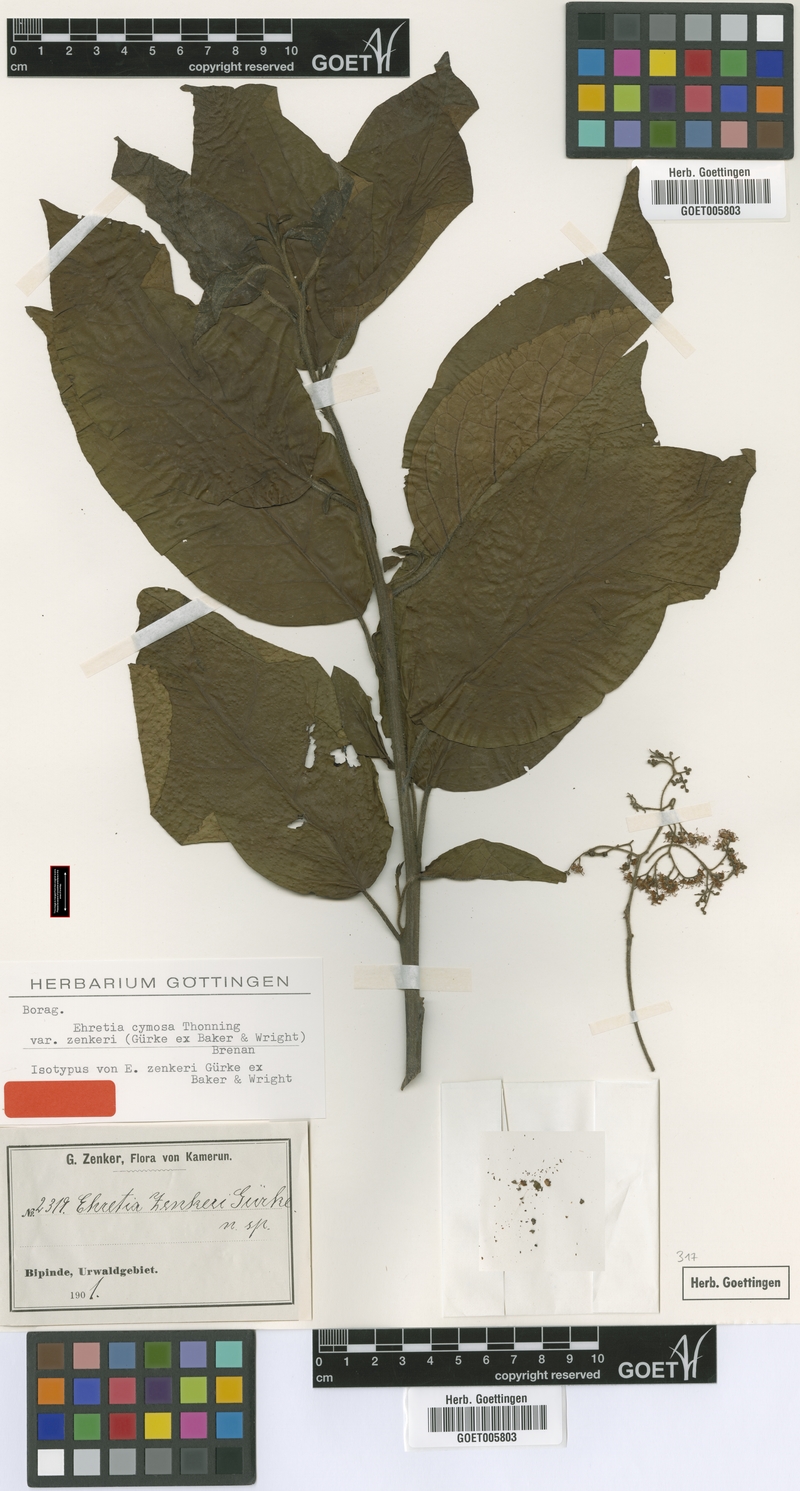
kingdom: Plantae
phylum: Tracheophyta
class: Magnoliopsida
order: Boraginales
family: Ehretiaceae
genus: Ehretia
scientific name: Ehretia cymosa
